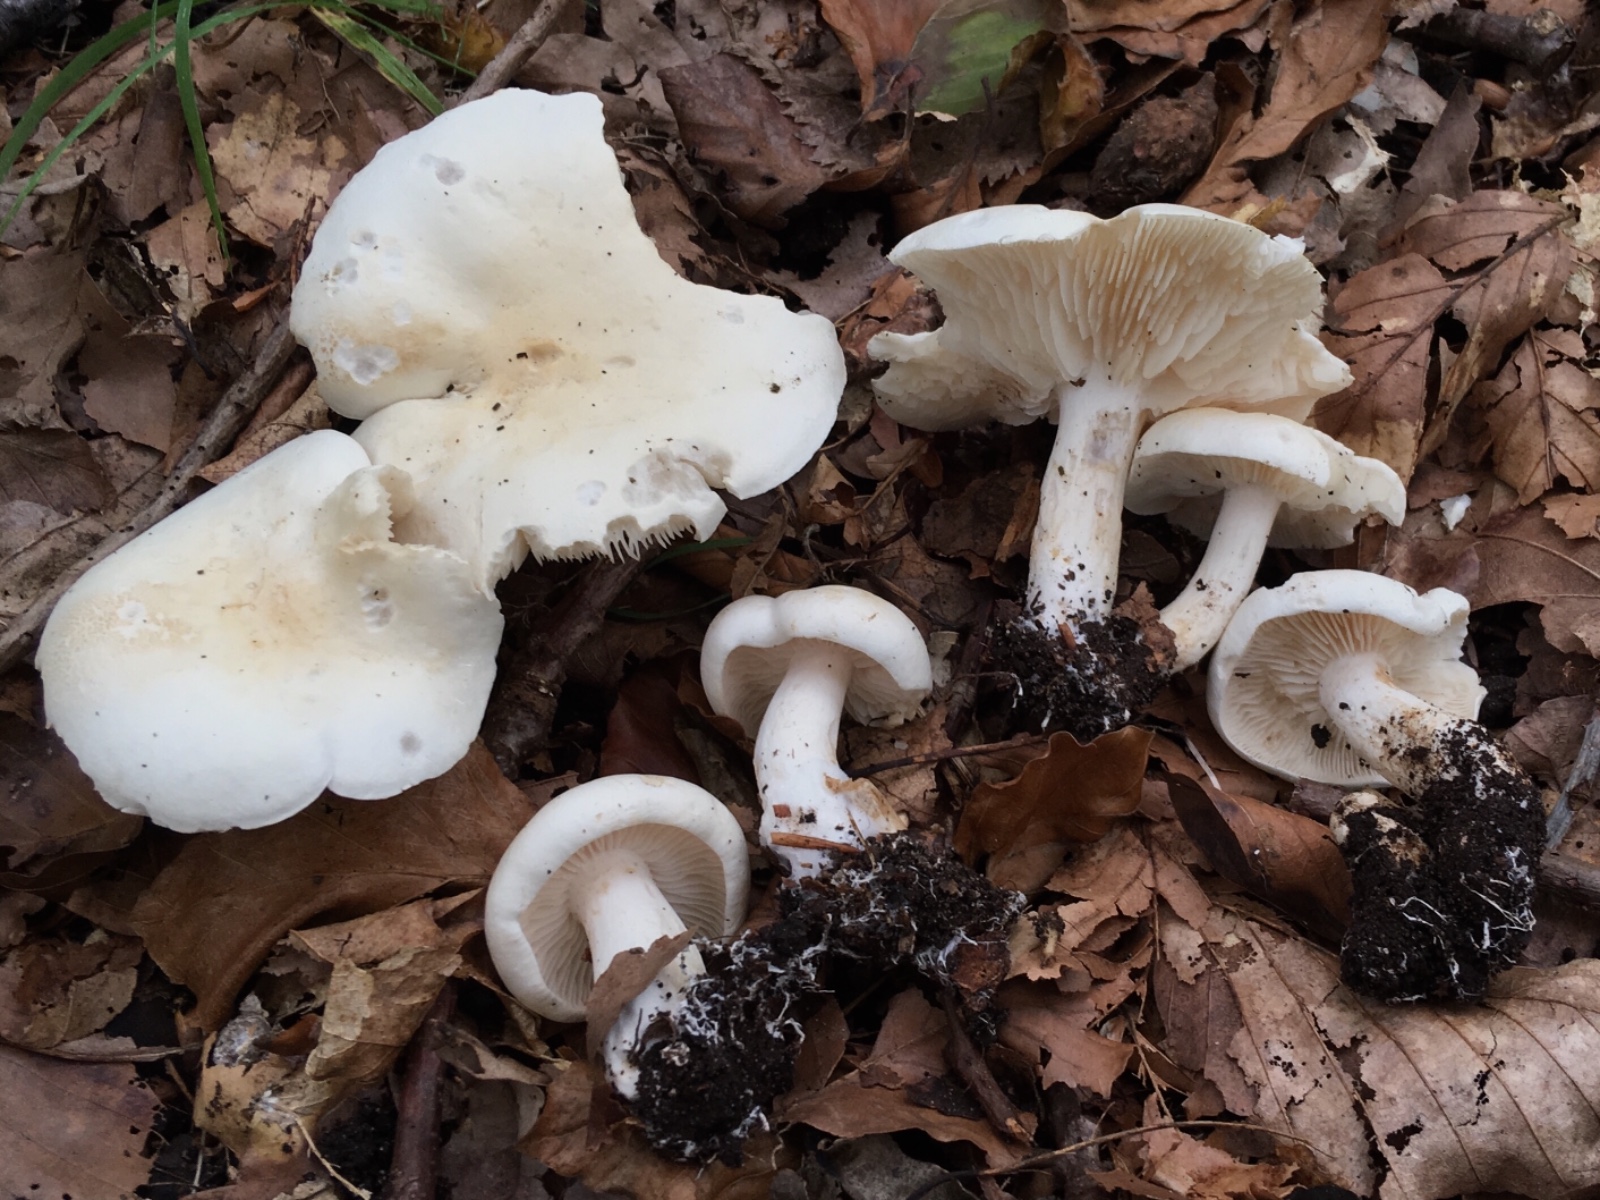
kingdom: Fungi
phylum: Basidiomycota
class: Agaricomycetes
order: Agaricales
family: Tricholomataceae
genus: Tricholoma
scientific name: Tricholoma album
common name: honning-ridderhat
